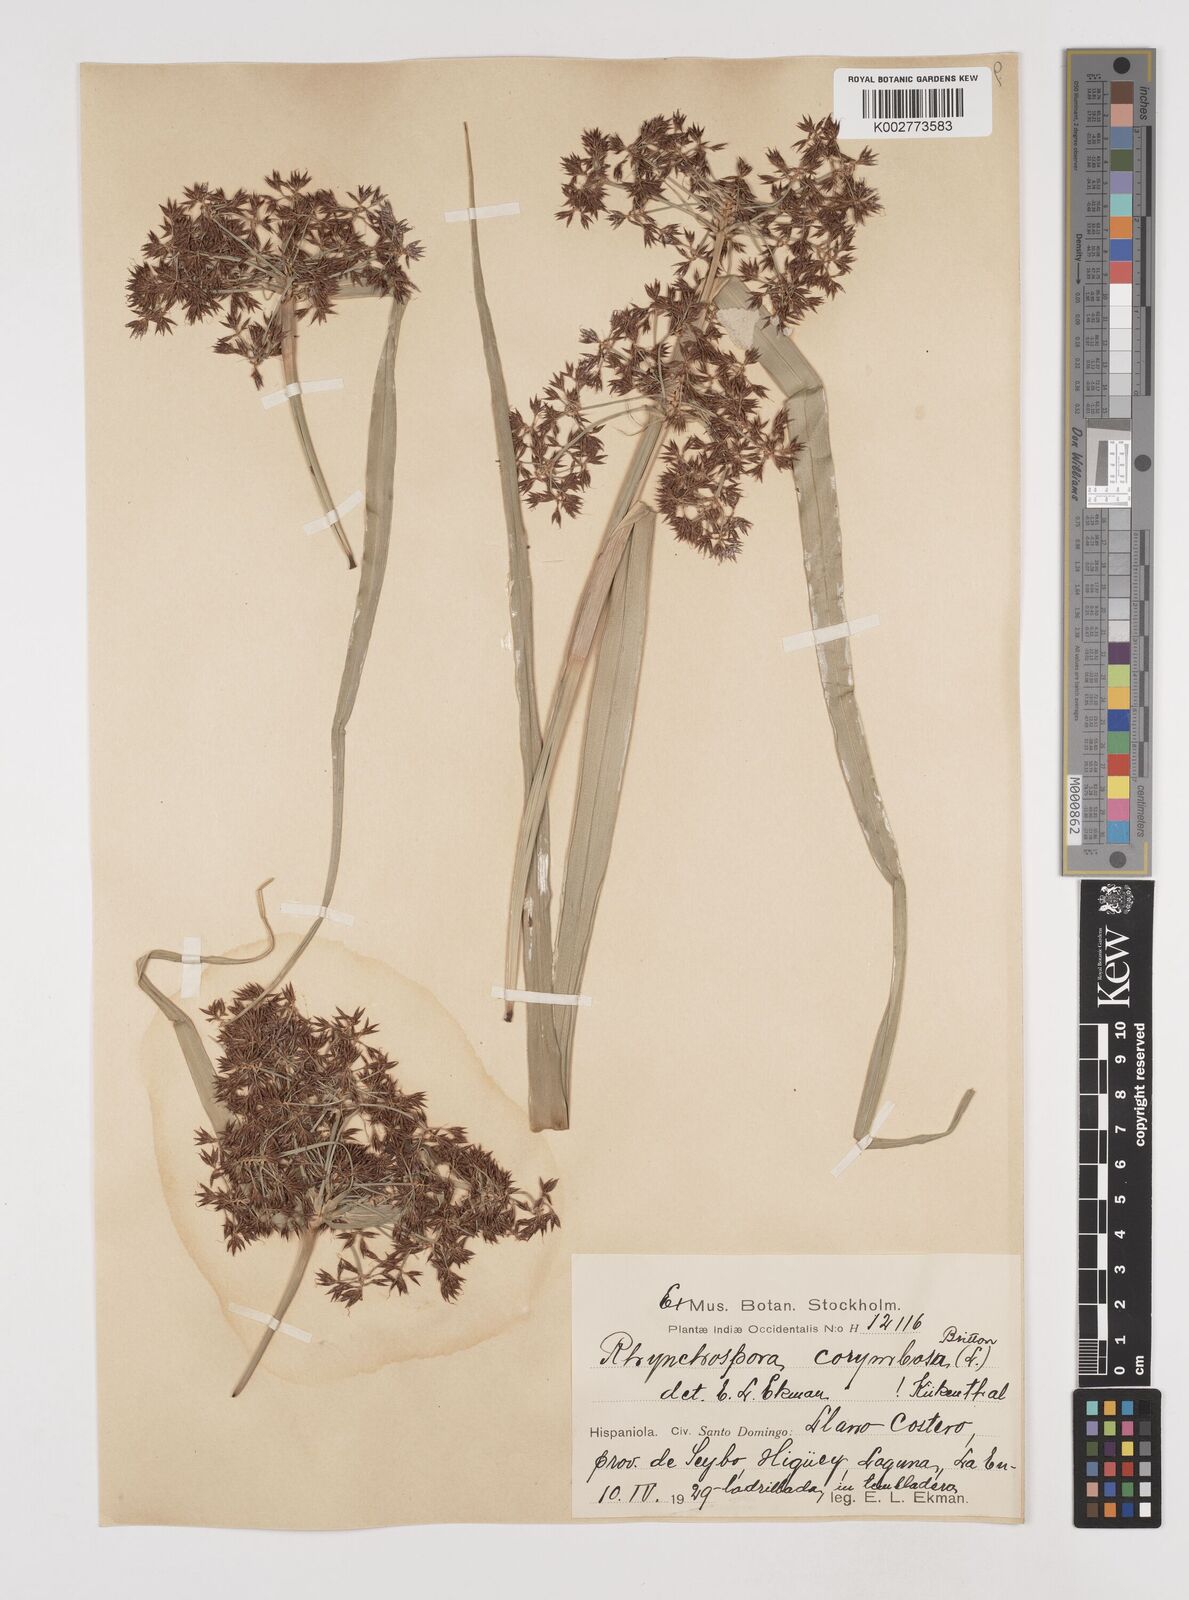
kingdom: Plantae
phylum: Tracheophyta
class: Liliopsida
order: Poales
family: Cyperaceae
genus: Rhynchospora
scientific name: Rhynchospora corymbosa
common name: Golden beak sedge
